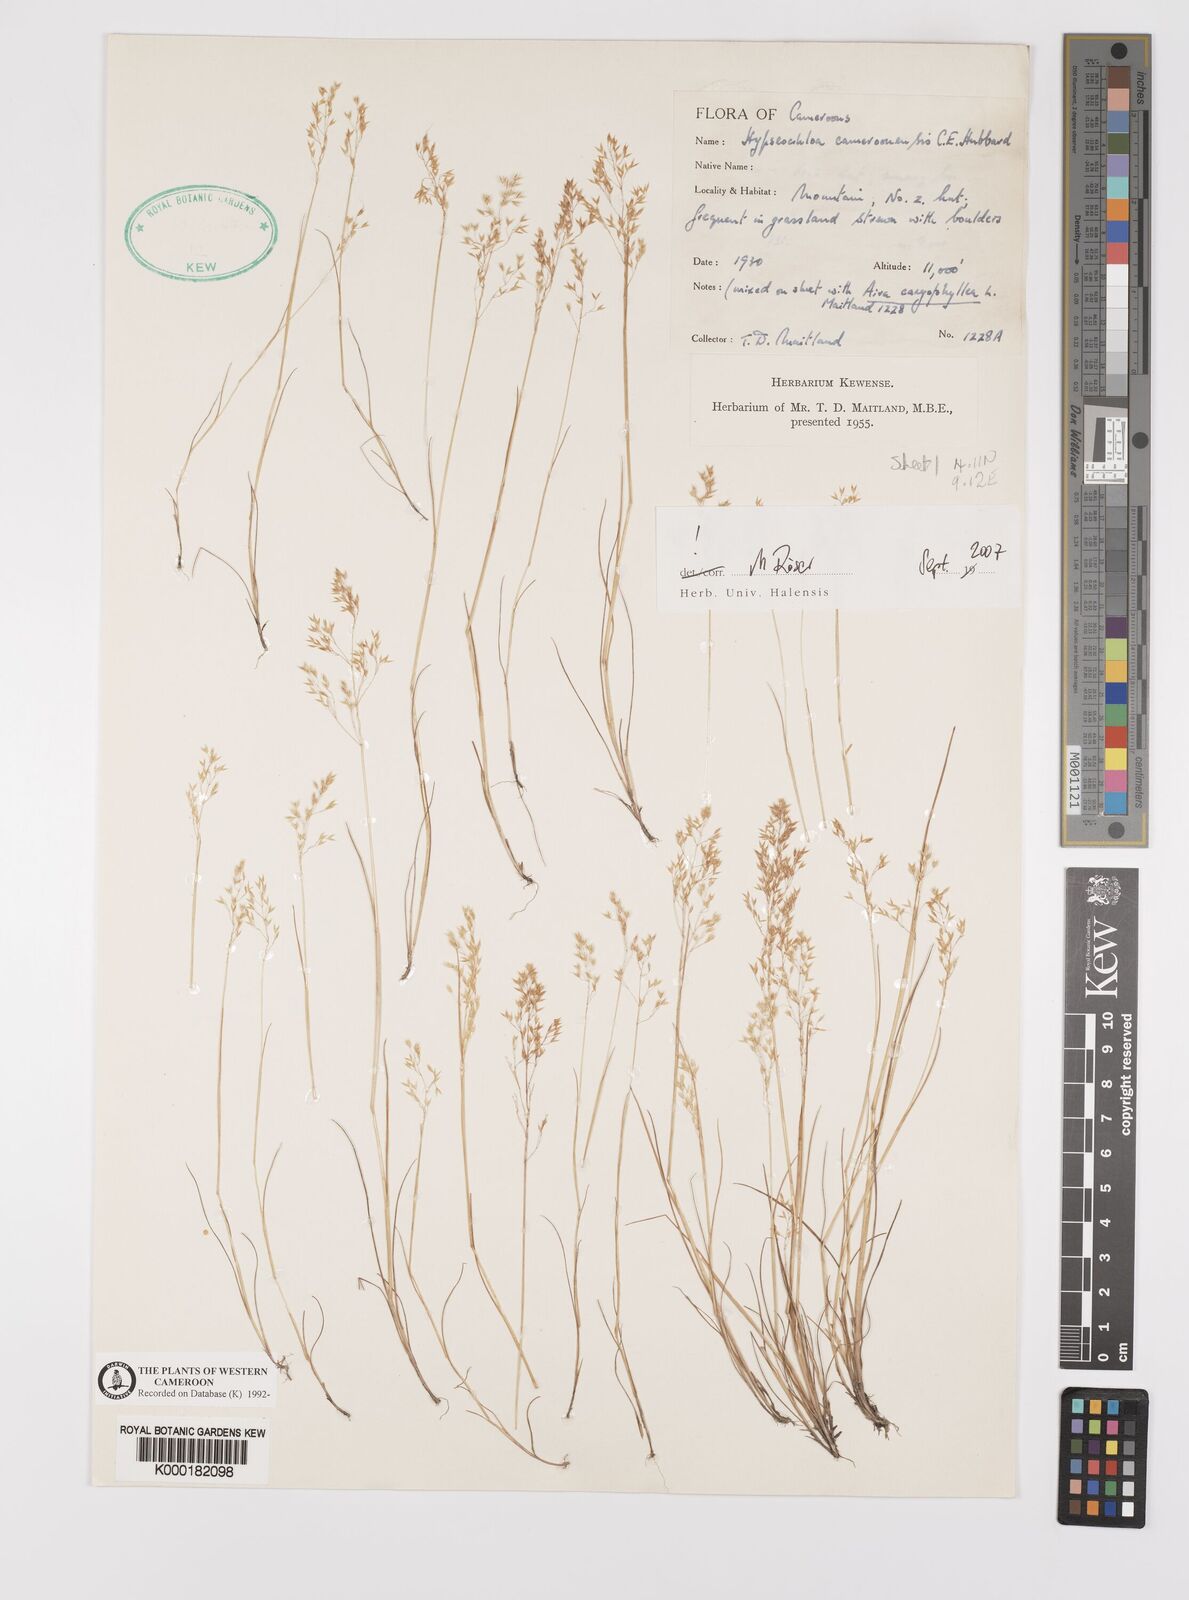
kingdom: Plantae
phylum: Tracheophyta
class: Liliopsida
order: Poales
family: Poaceae
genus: Hypseochloa
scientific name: Hypseochloa cameroonensis
